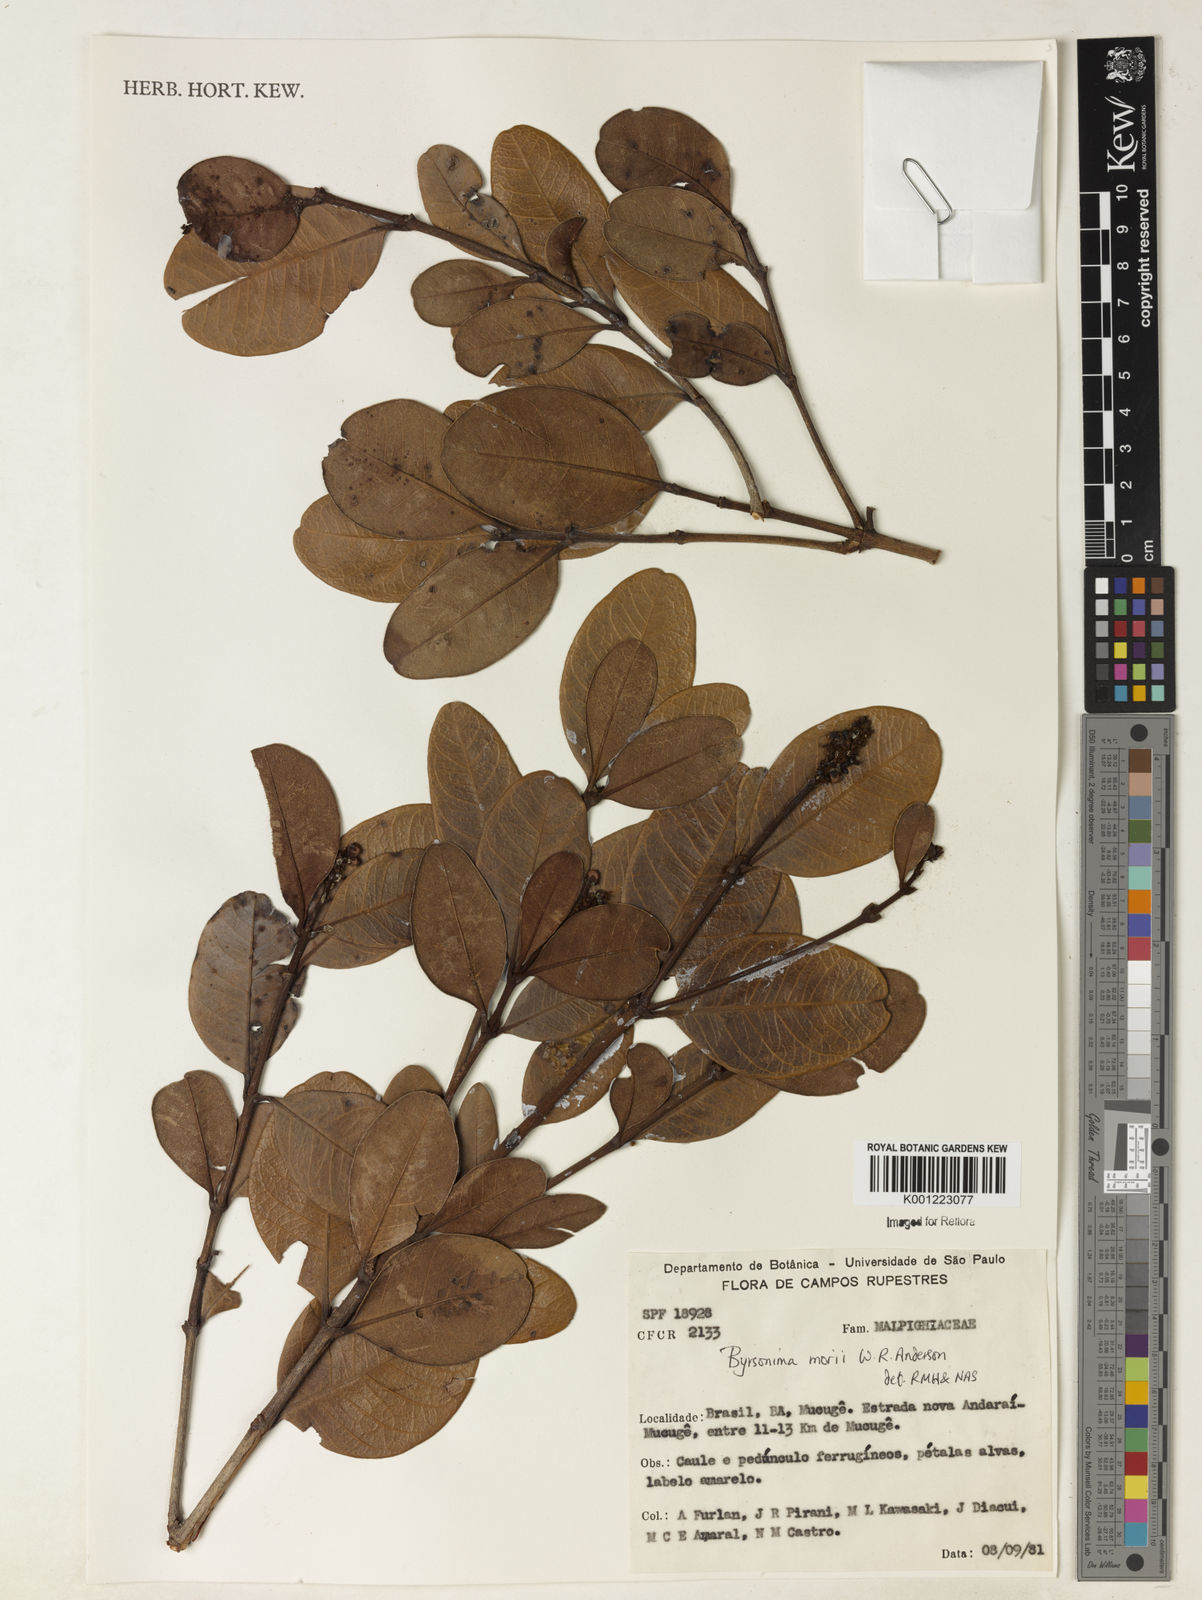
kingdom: Plantae
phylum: Tracheophyta
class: Magnoliopsida
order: Malpighiales
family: Malpighiaceae
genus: Byrsonima
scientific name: Byrsonima morii
